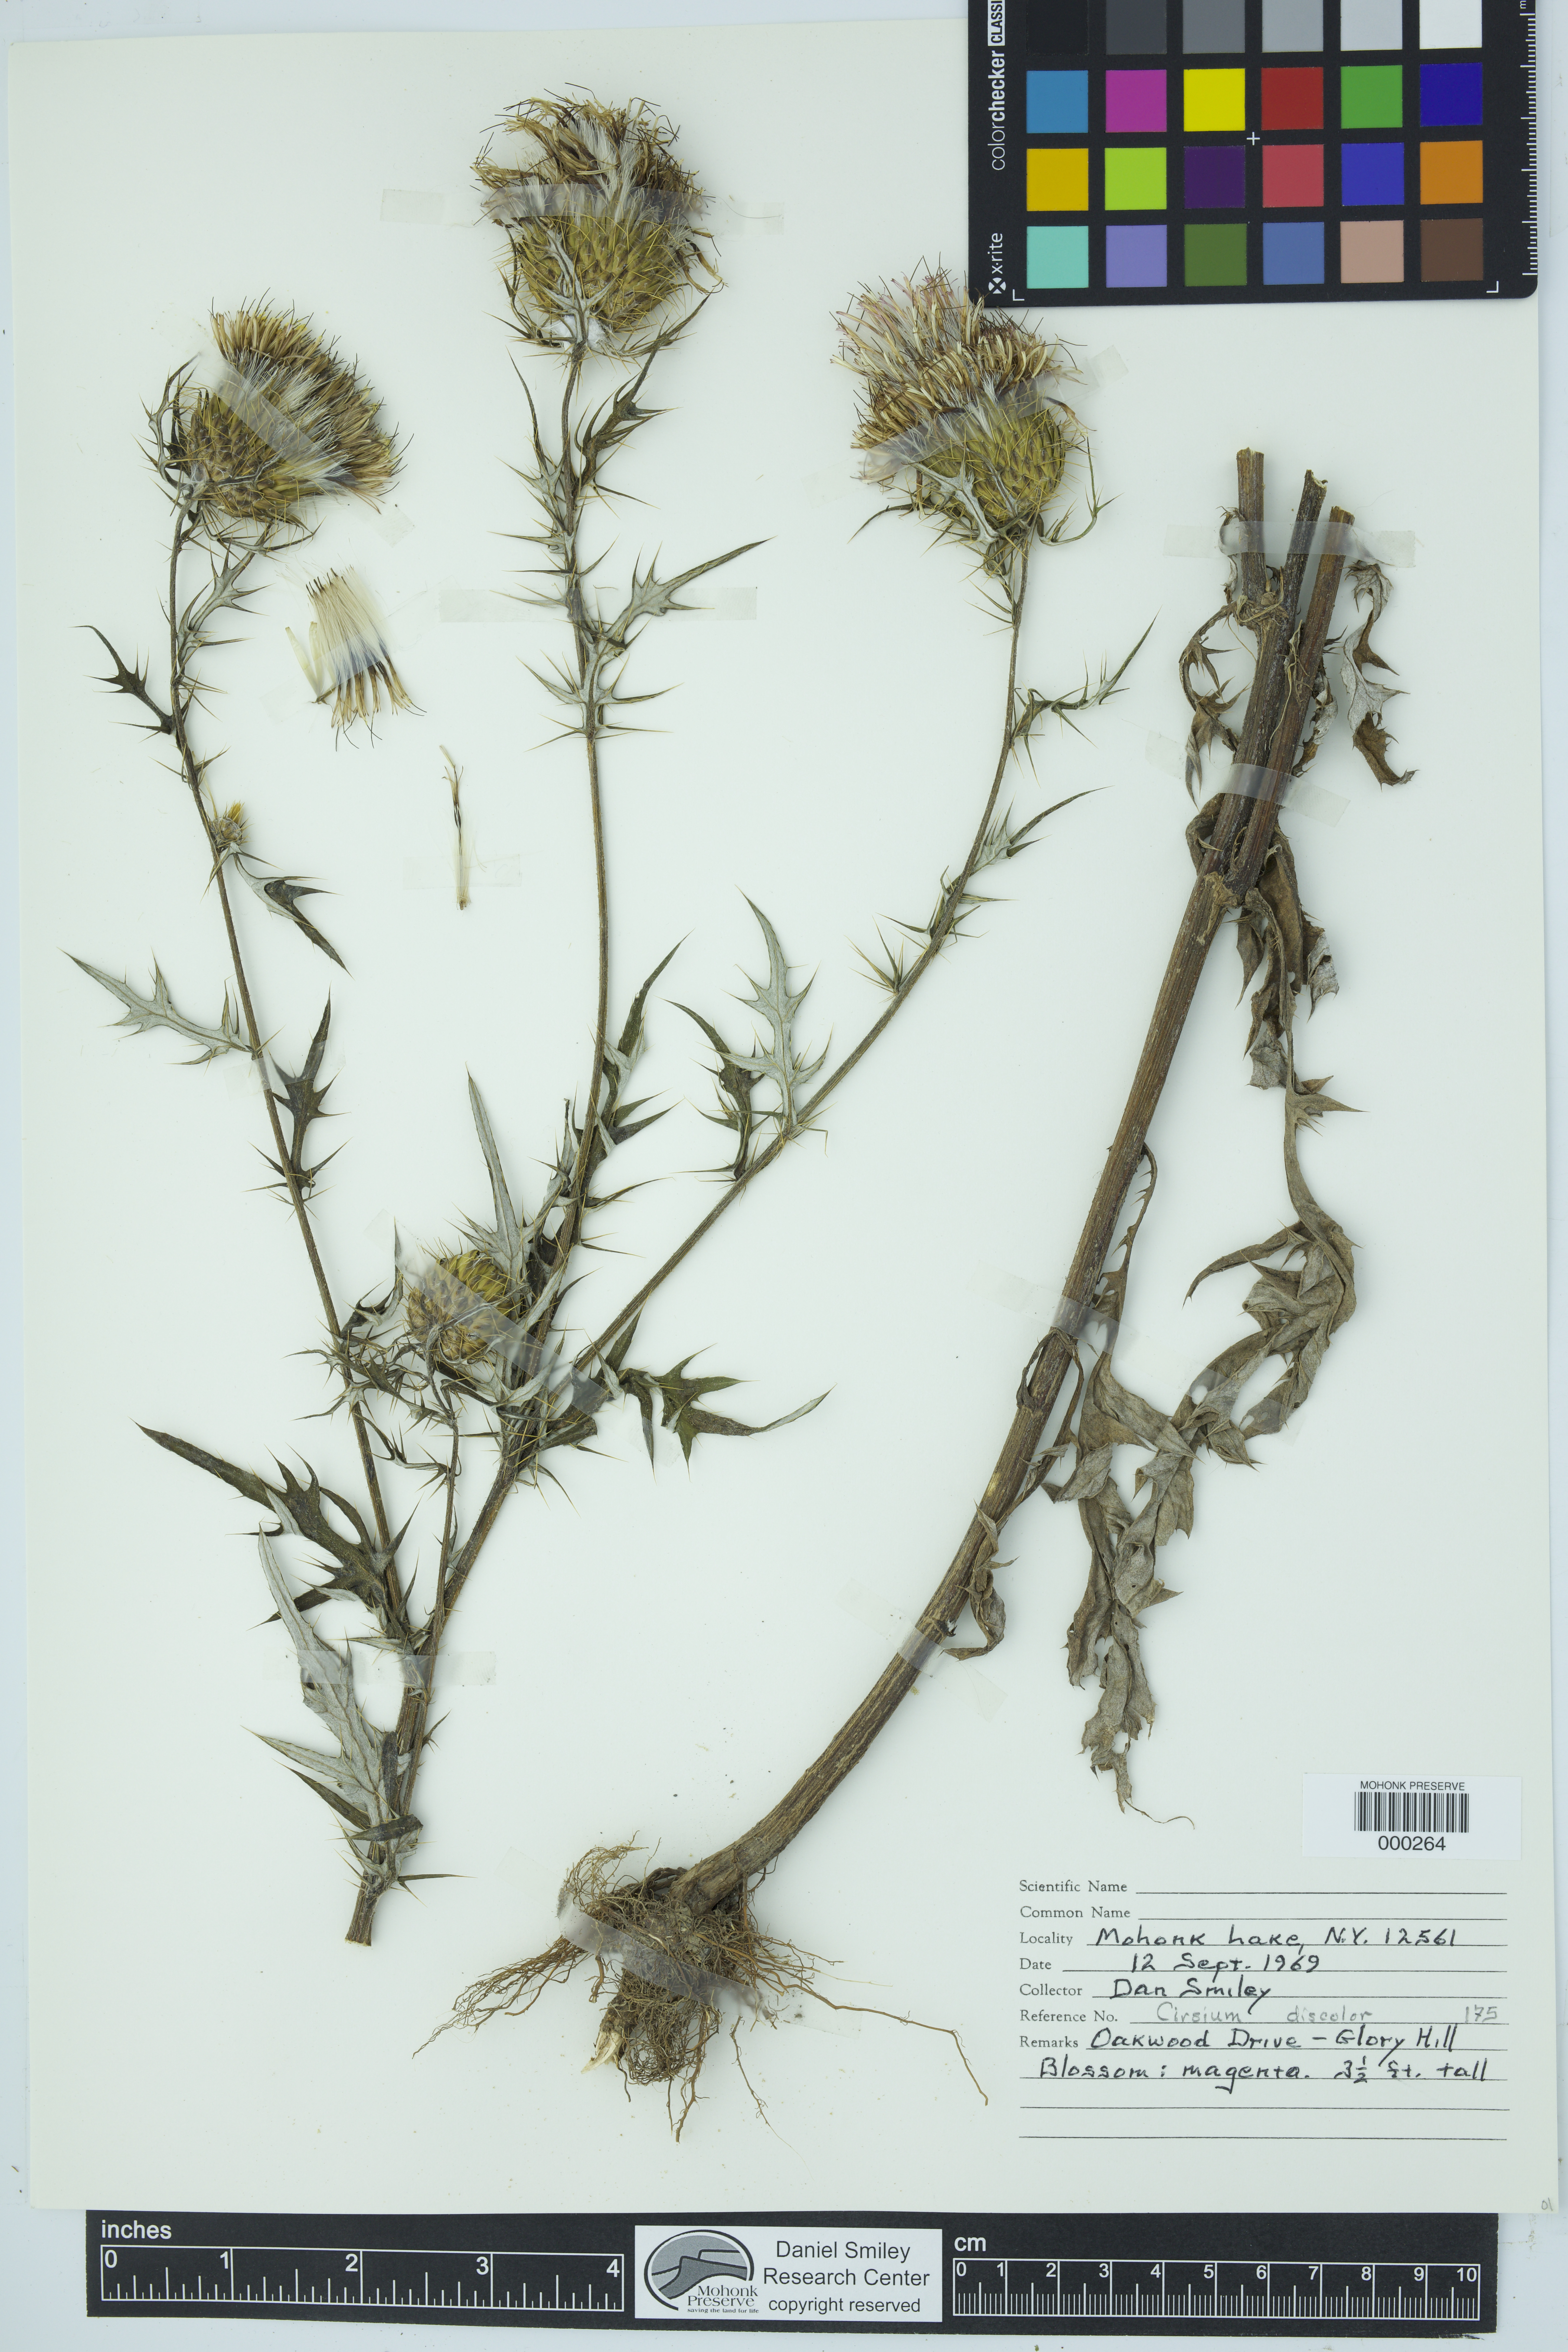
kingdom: Plantae
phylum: Tracheophyta
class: Magnoliopsida
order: Asterales
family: Asteraceae
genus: Cirsium
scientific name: Cirsium discolor
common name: Field thistle
